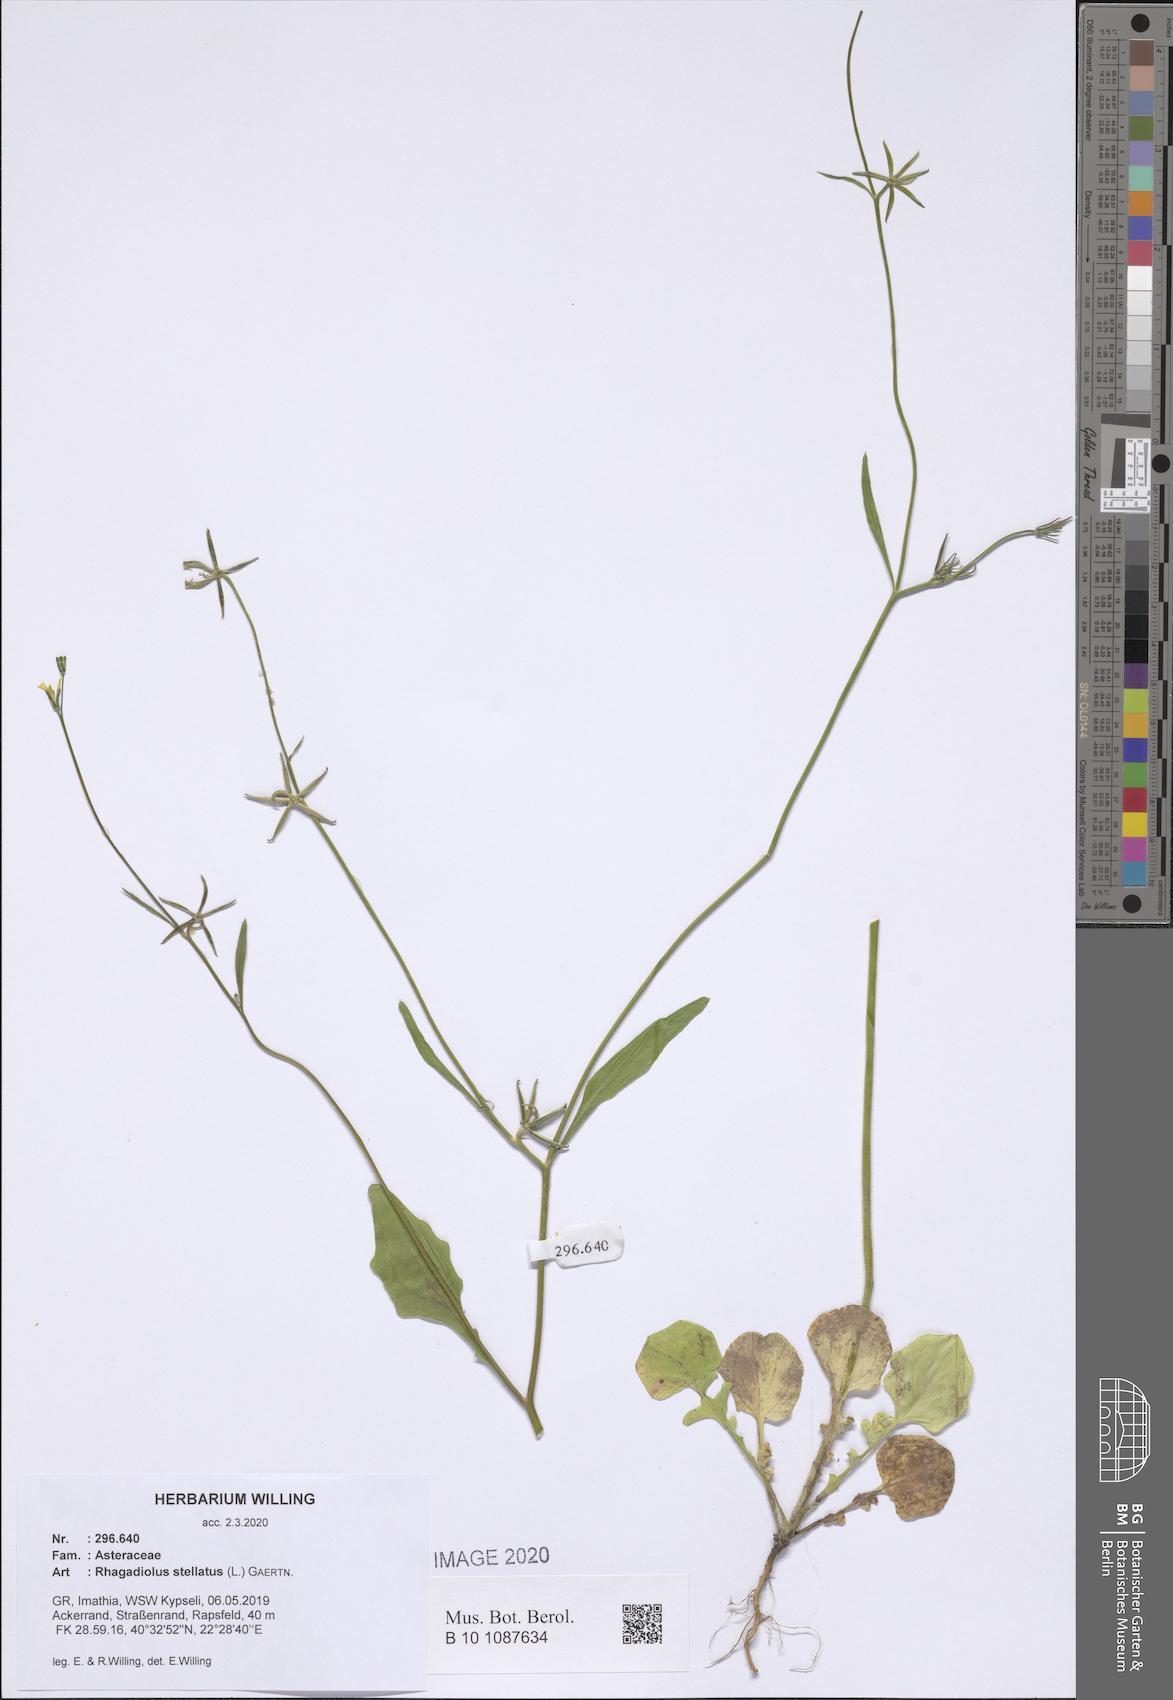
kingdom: Plantae
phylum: Tracheophyta
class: Magnoliopsida
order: Asterales
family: Asteraceae
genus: Rhagadiolus
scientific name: Rhagadiolus stellatus
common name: Star hawkbit
